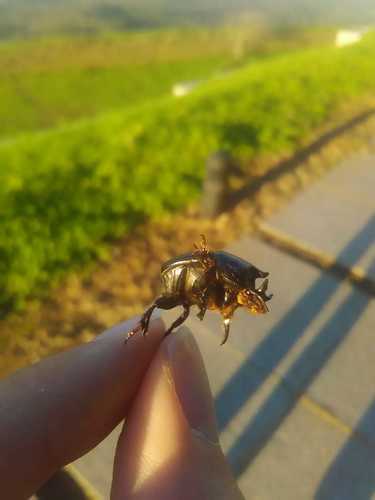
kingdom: Animalia
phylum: Arthropoda
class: Insecta
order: Coleoptera
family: Scarabaeidae
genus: Bubas
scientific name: Bubas bison
